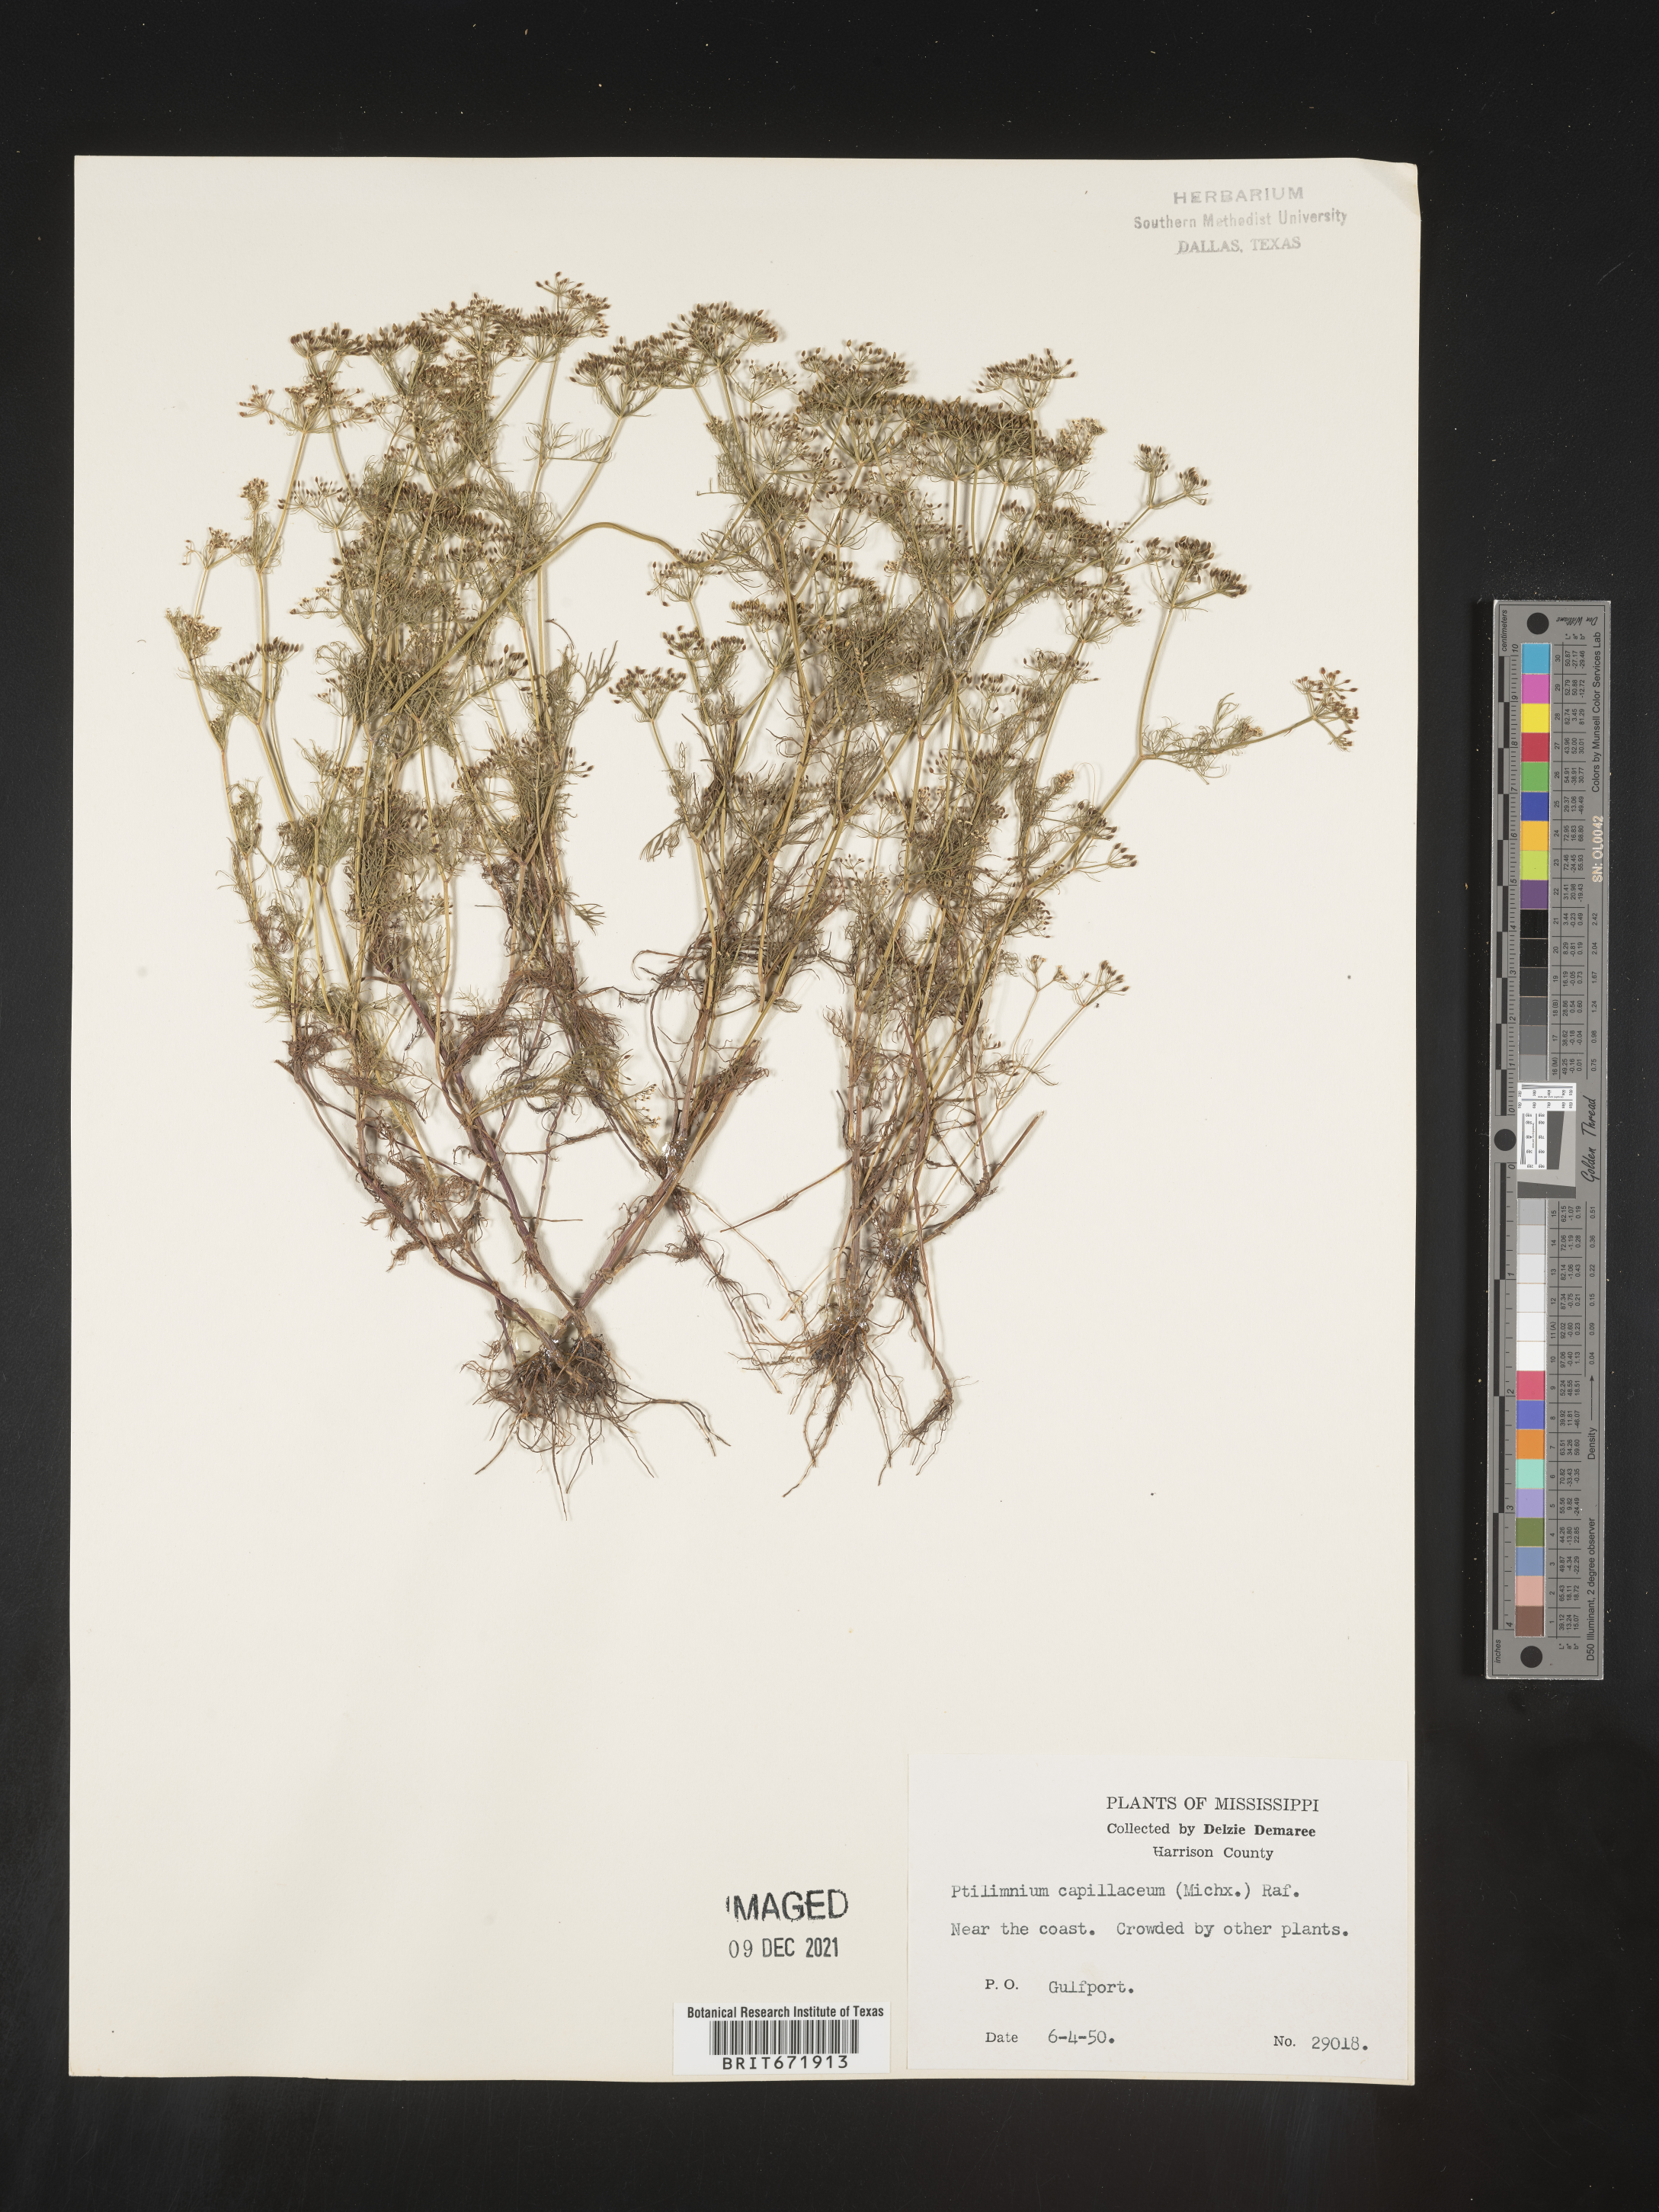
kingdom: Plantae
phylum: Tracheophyta
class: Magnoliopsida
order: Apiales
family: Apiaceae
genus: Ptilimnium
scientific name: Ptilimnium capillaceum
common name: Herbwilliam
